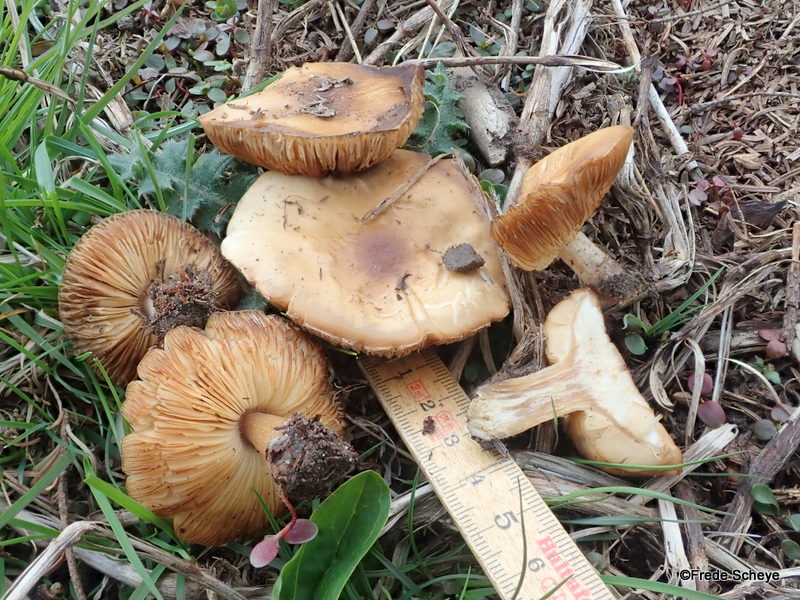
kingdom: Fungi
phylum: Basidiomycota
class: Agaricomycetes
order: Agaricales
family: Tricholomataceae
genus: Melanoleuca
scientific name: Melanoleuca cognata
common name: gyldengrå munkehat
